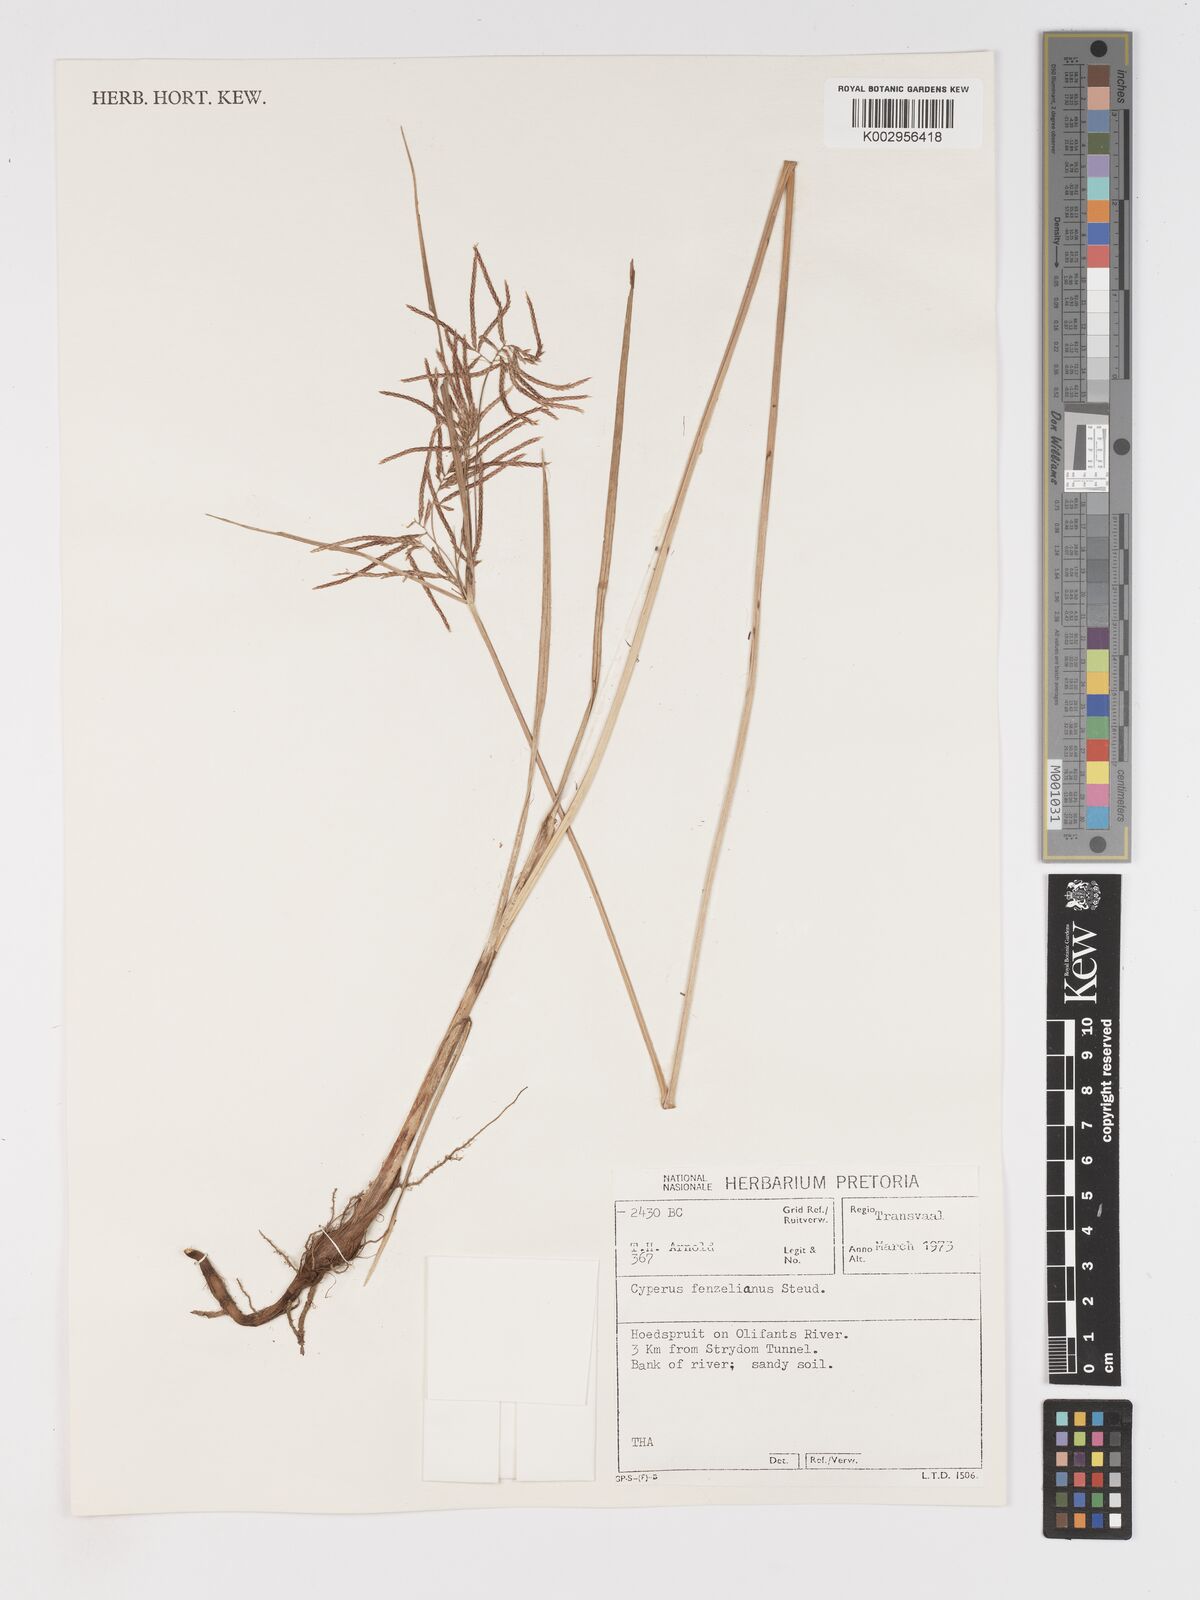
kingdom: Plantae
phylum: Tracheophyta
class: Liliopsida
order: Poales
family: Cyperaceae
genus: Cyperus
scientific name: Cyperus longus
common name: Galingale
